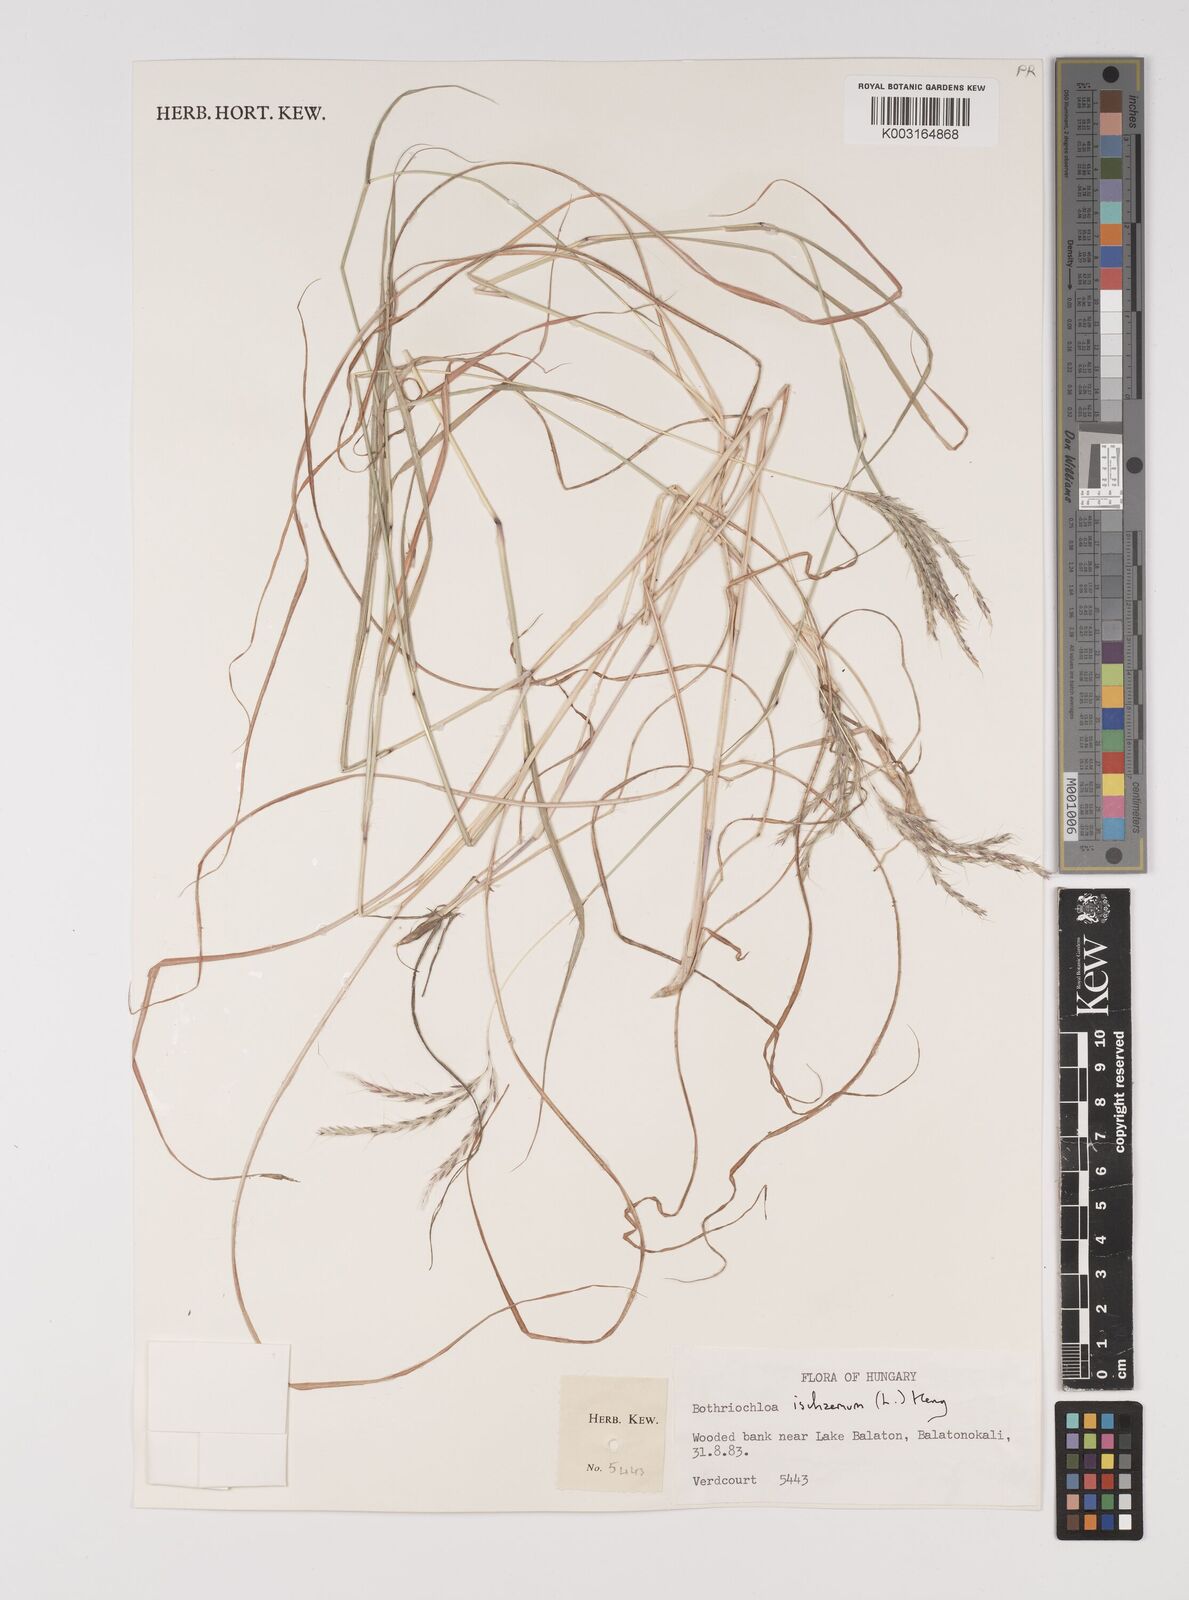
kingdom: Plantae
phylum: Tracheophyta
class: Liliopsida
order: Poales
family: Poaceae
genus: Bothriochloa
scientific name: Bothriochloa ischaemum
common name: Yellow bluestem
